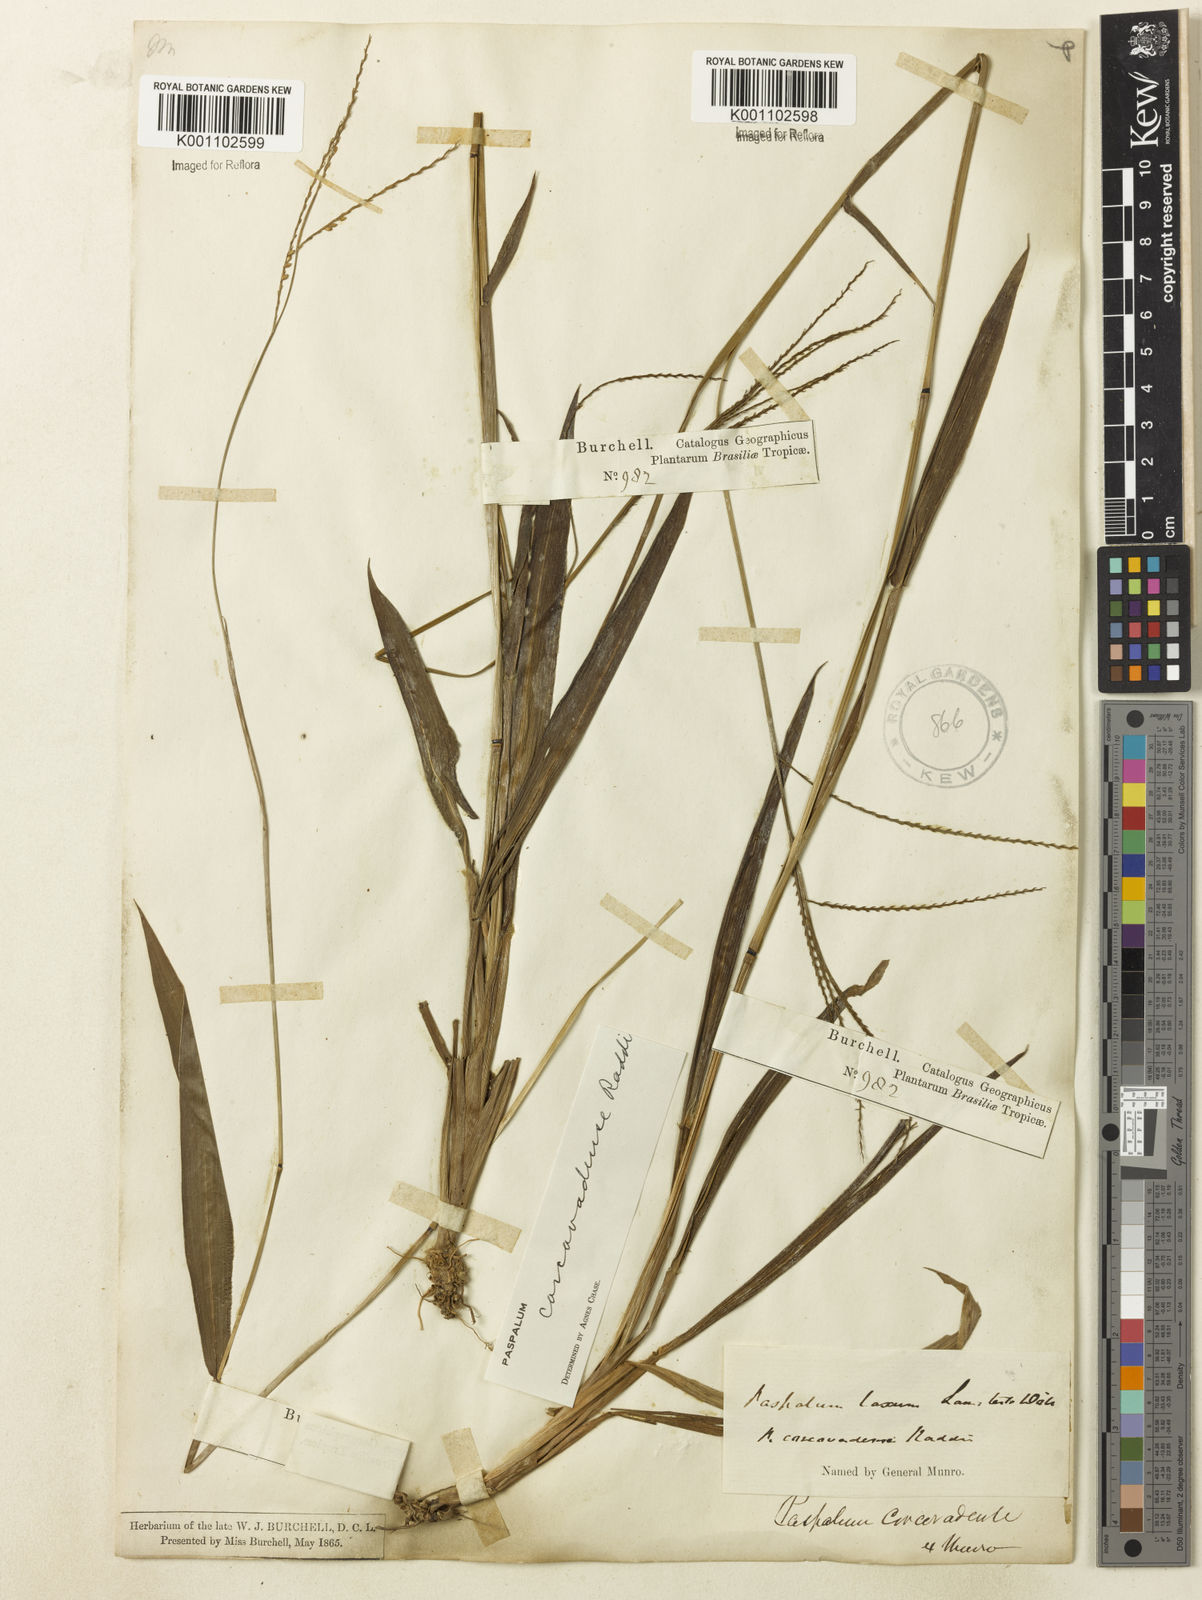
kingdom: Plantae
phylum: Tracheophyta
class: Liliopsida
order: Poales
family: Poaceae
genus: Paspalum
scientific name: Paspalum corcovadense
